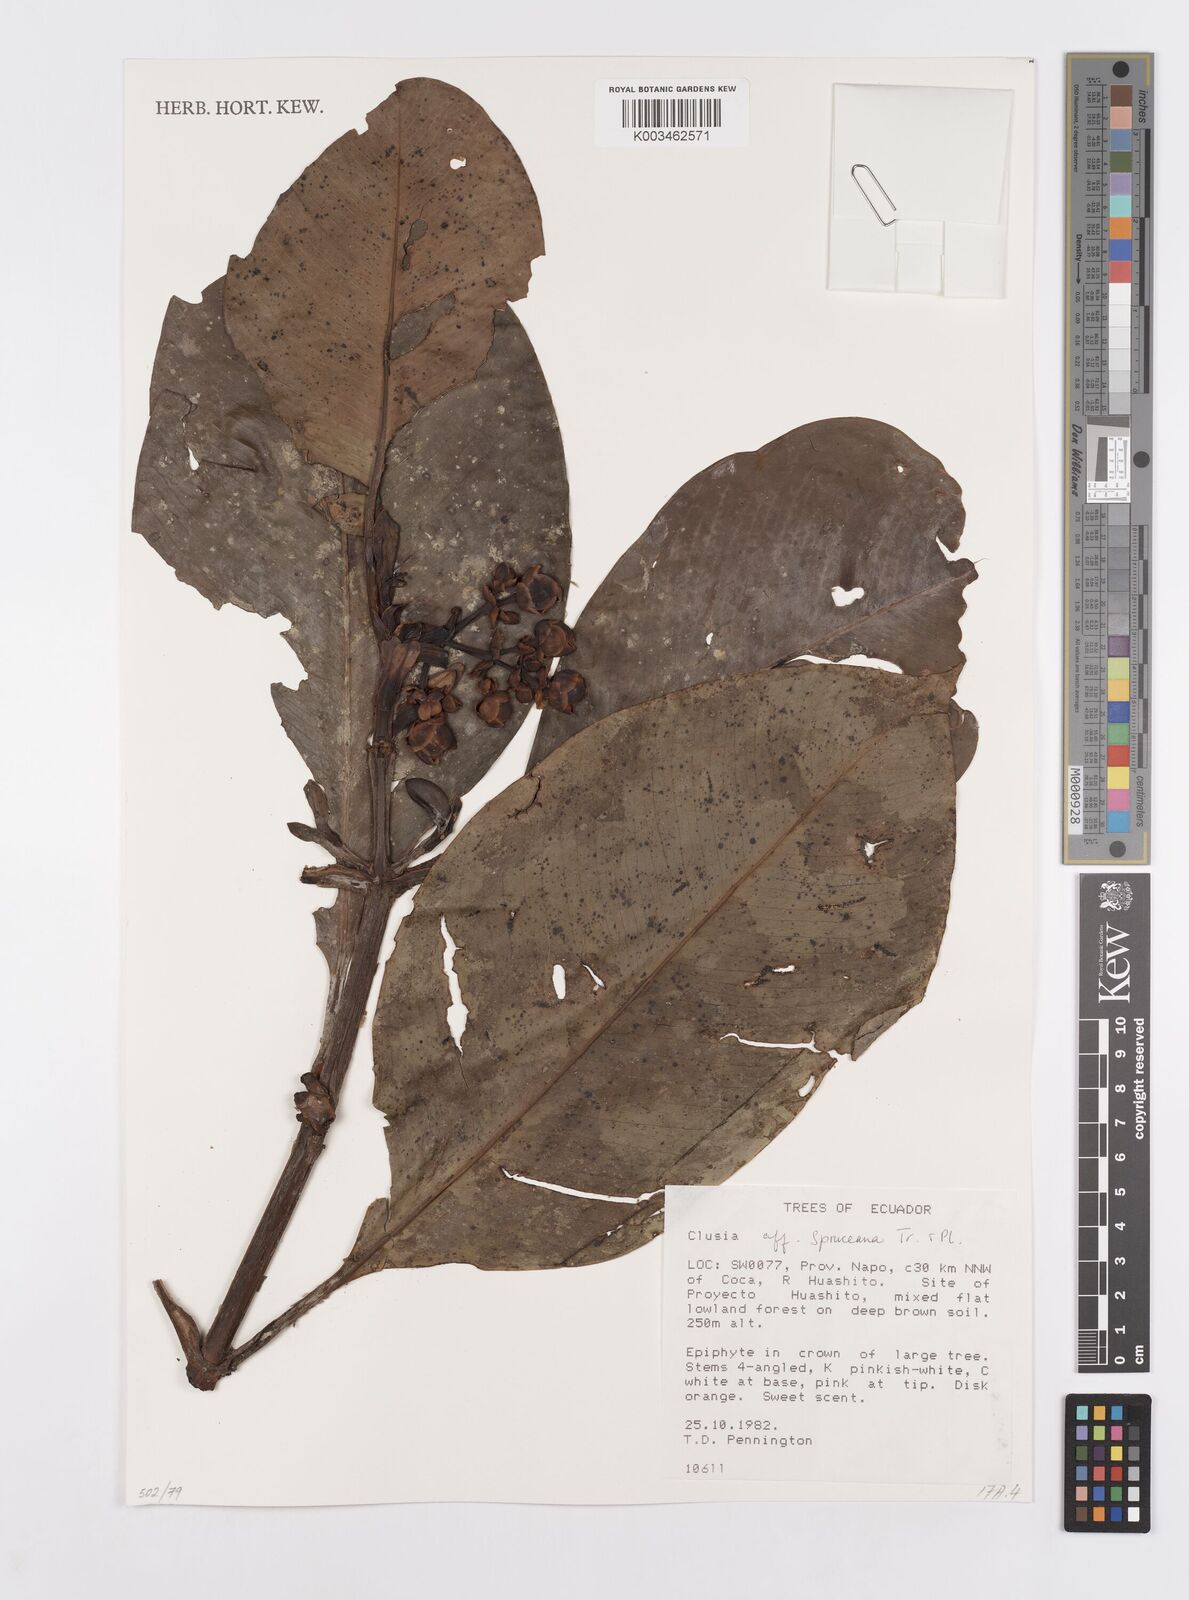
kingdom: Plantae
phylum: Tracheophyta
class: Magnoliopsida
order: Malpighiales
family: Clusiaceae
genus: Clusia
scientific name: Clusia spruceana
